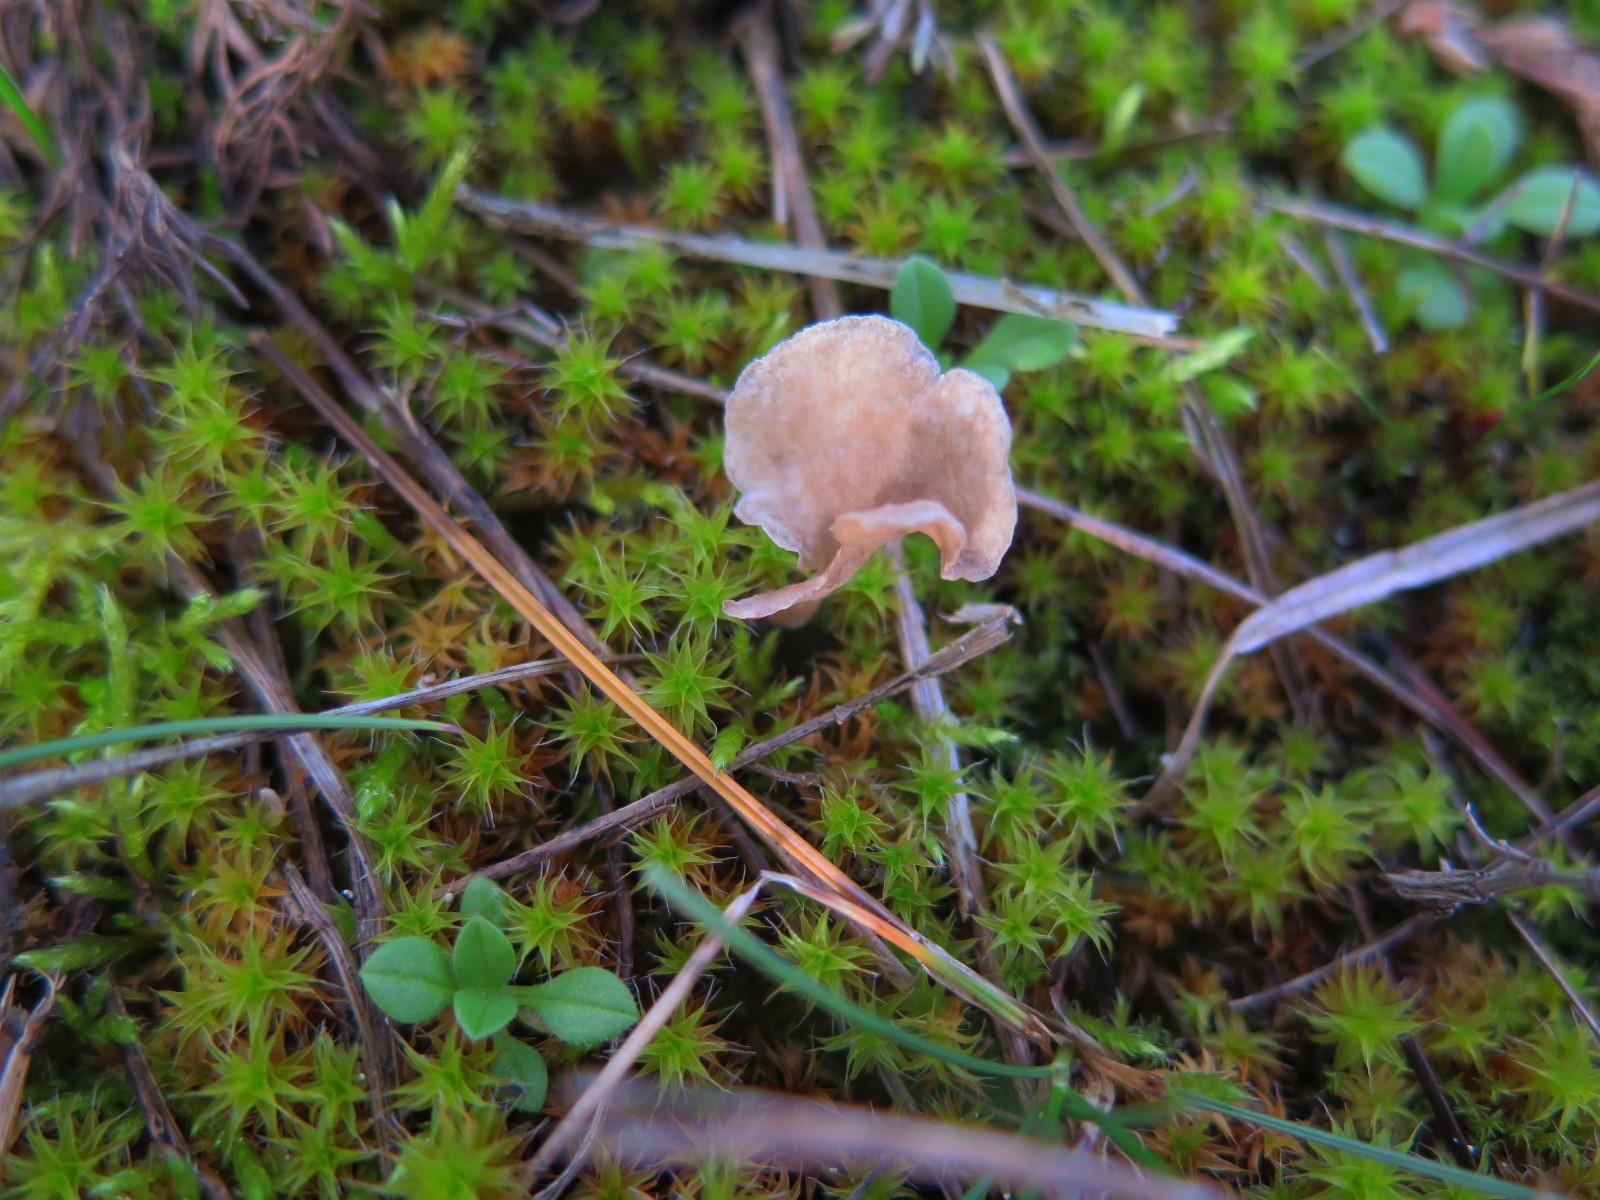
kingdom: Fungi
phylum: Basidiomycota
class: Agaricomycetes
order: Agaricales
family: Hygrophoraceae
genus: Arrhenia
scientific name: Arrhenia spathulata
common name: skæv fontænehat
